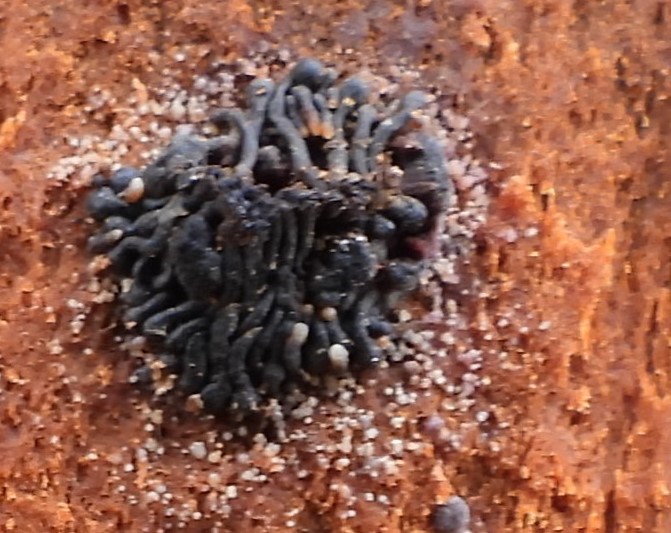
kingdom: Fungi
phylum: Ascomycota
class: Sordariomycetes
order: Calosphaeriales
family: Calosphaeriaceae
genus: Calosphaeria
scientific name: Calosphaeria pulchella
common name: smuk slyngkerne
